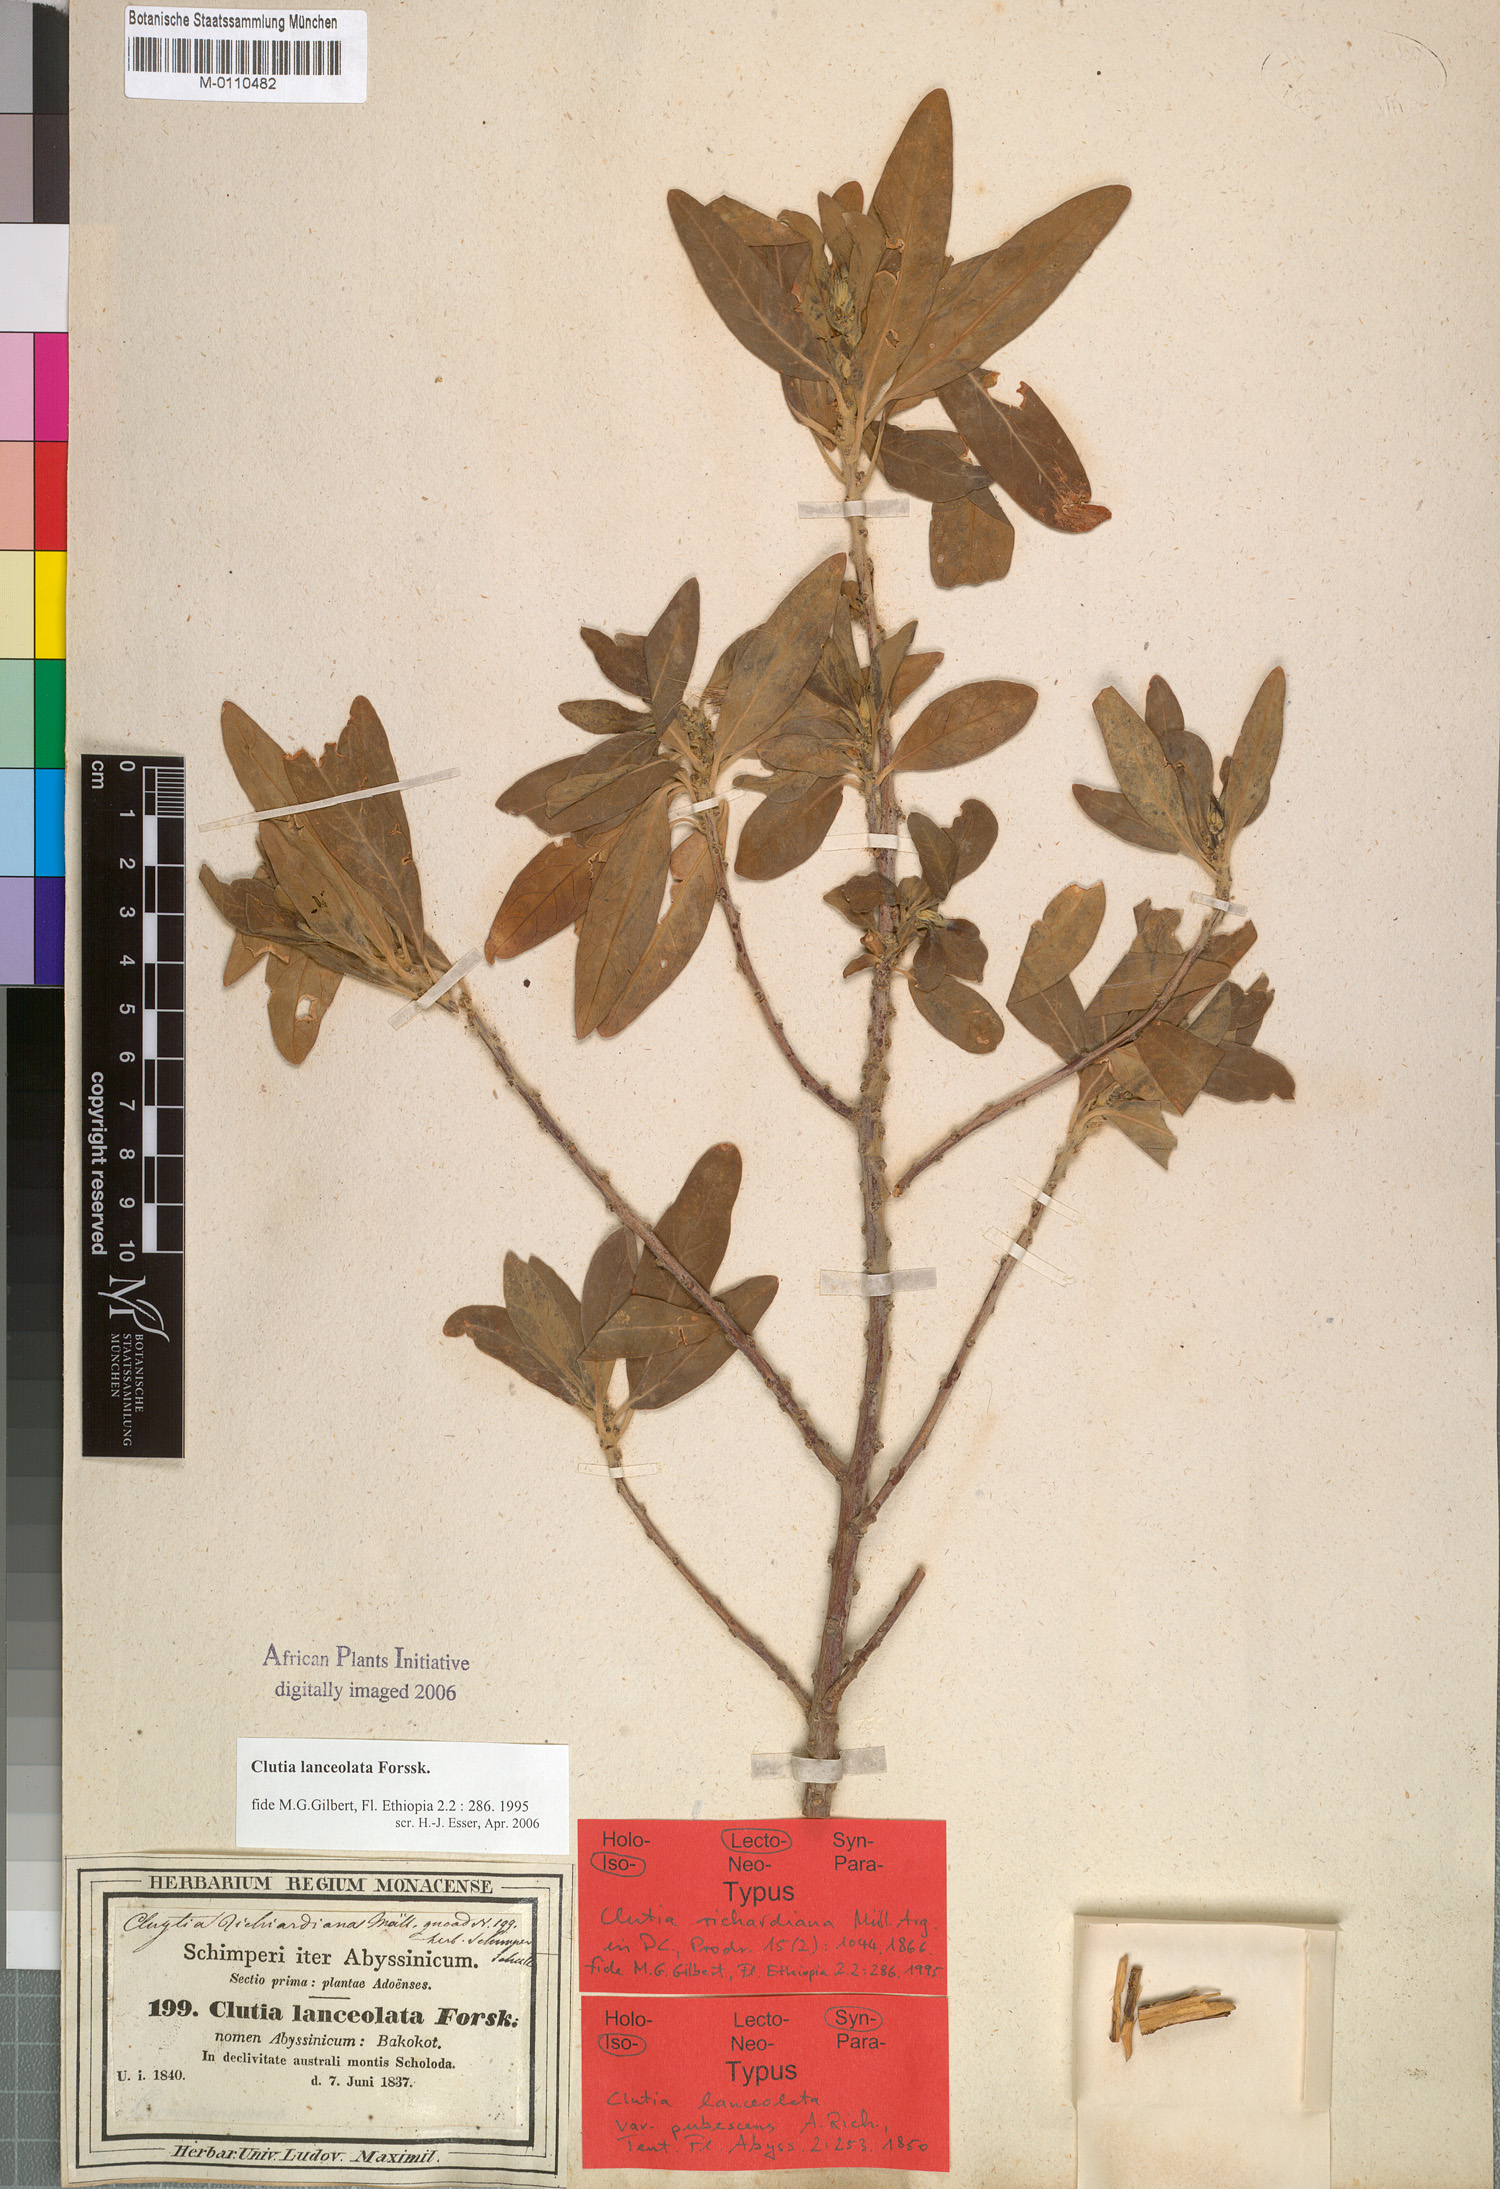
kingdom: Plantae
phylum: Tracheophyta
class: Magnoliopsida
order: Malpighiales
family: Peraceae
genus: Clutia
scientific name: Clutia lanceolata
